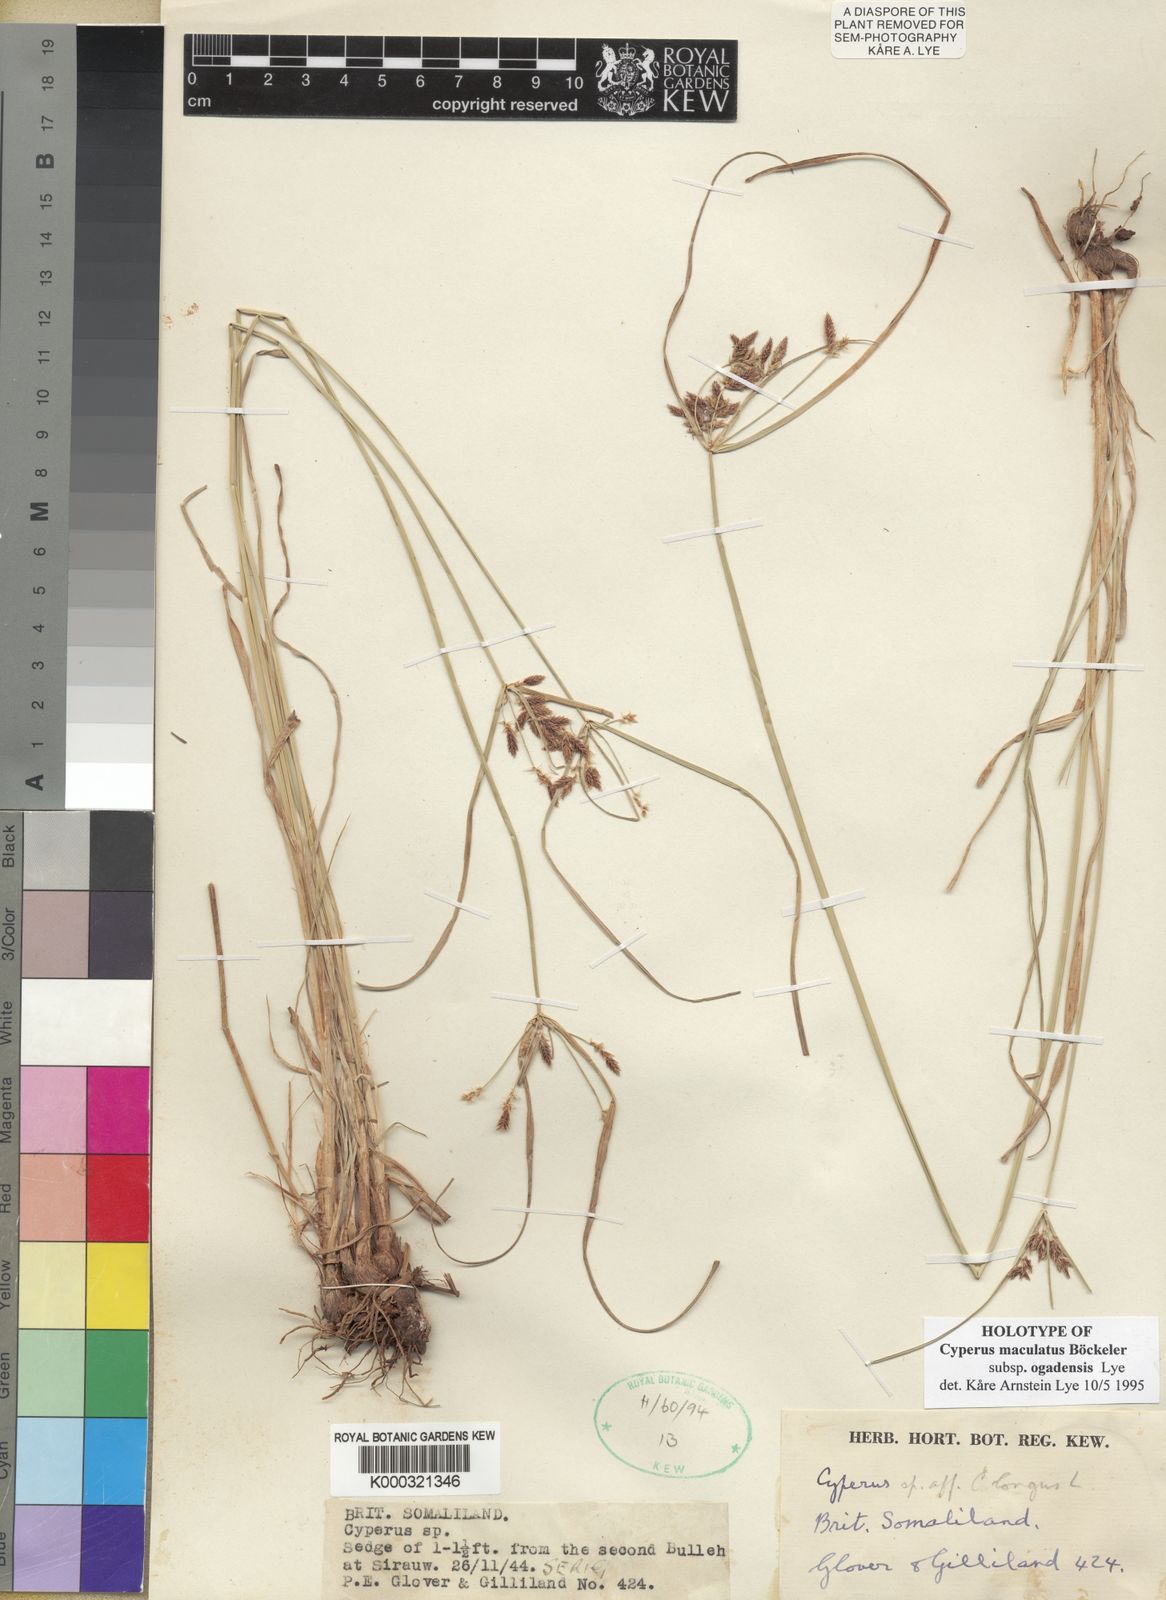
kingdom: Plantae
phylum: Tracheophyta
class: Liliopsida
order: Poales
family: Cyperaceae
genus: Cyperus
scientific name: Cyperus maculatus
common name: Maculated sedge
